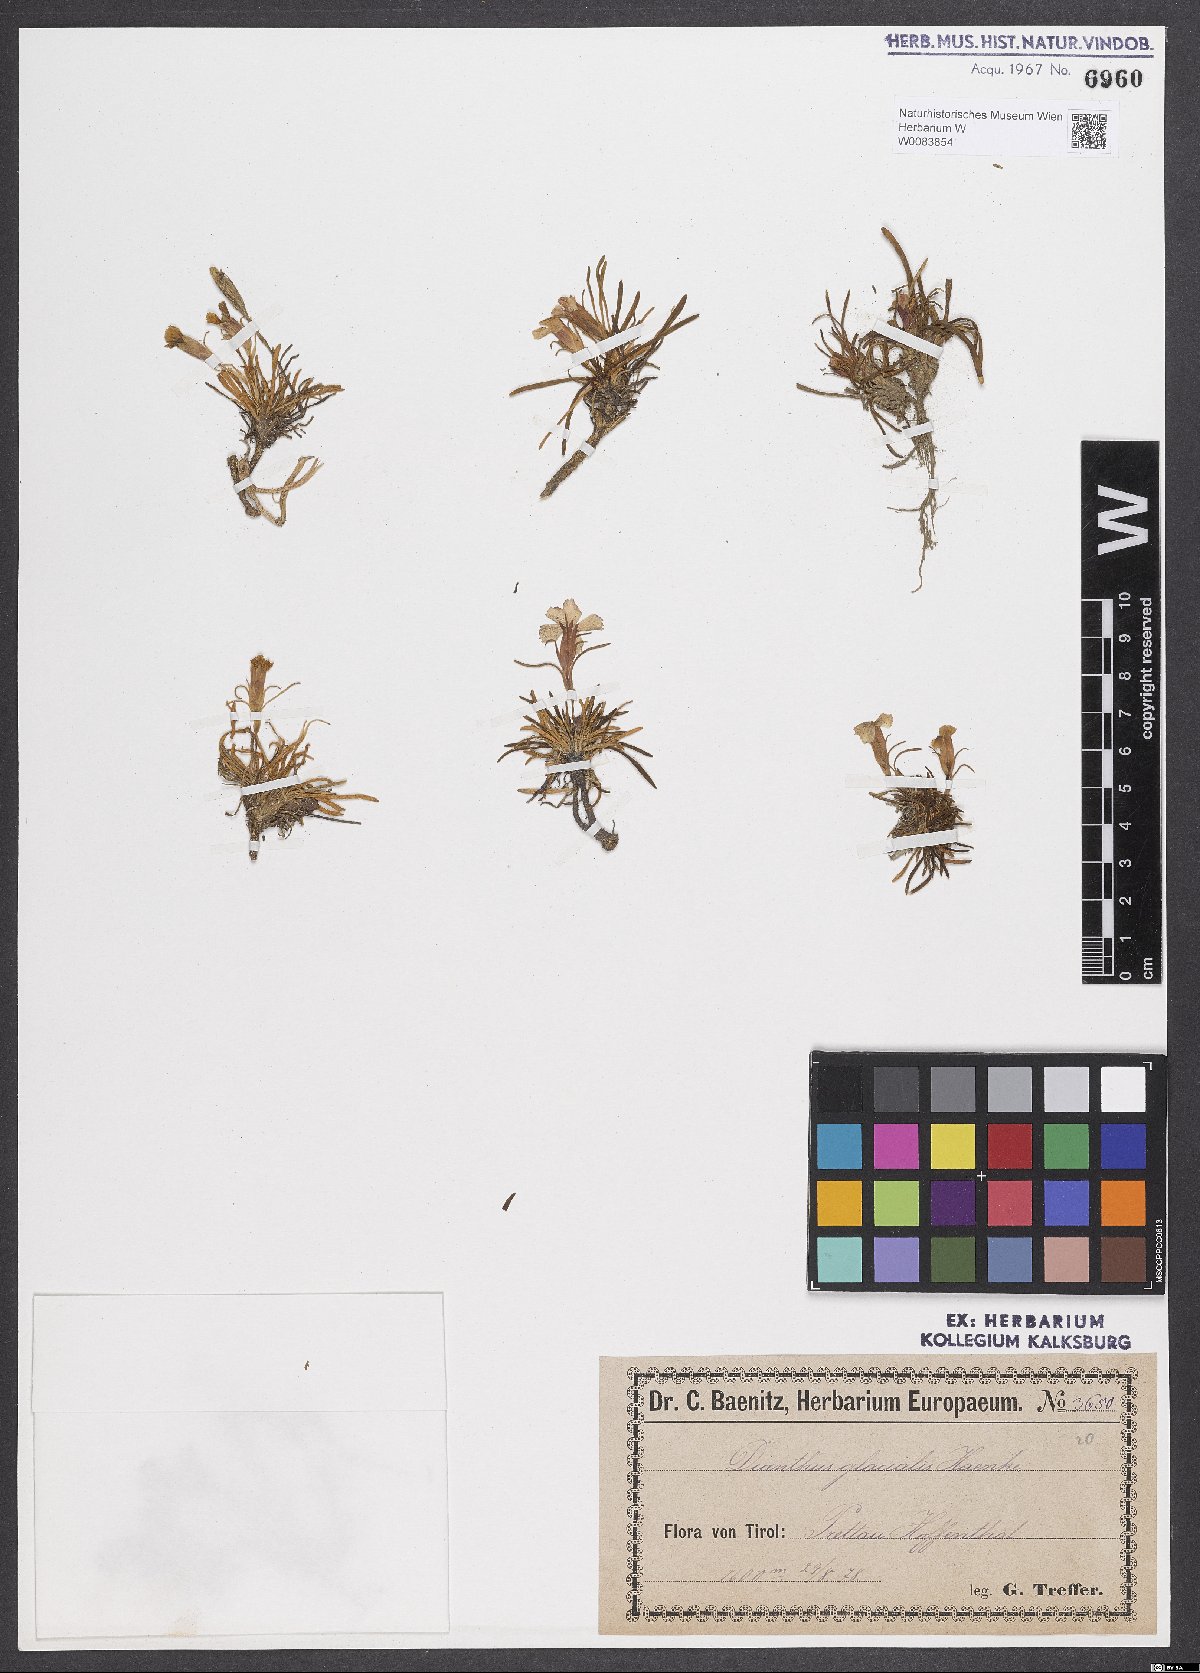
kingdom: Plantae
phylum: Tracheophyta
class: Magnoliopsida
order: Caryophyllales
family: Caryophyllaceae
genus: Dianthus
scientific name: Dianthus glacialis
